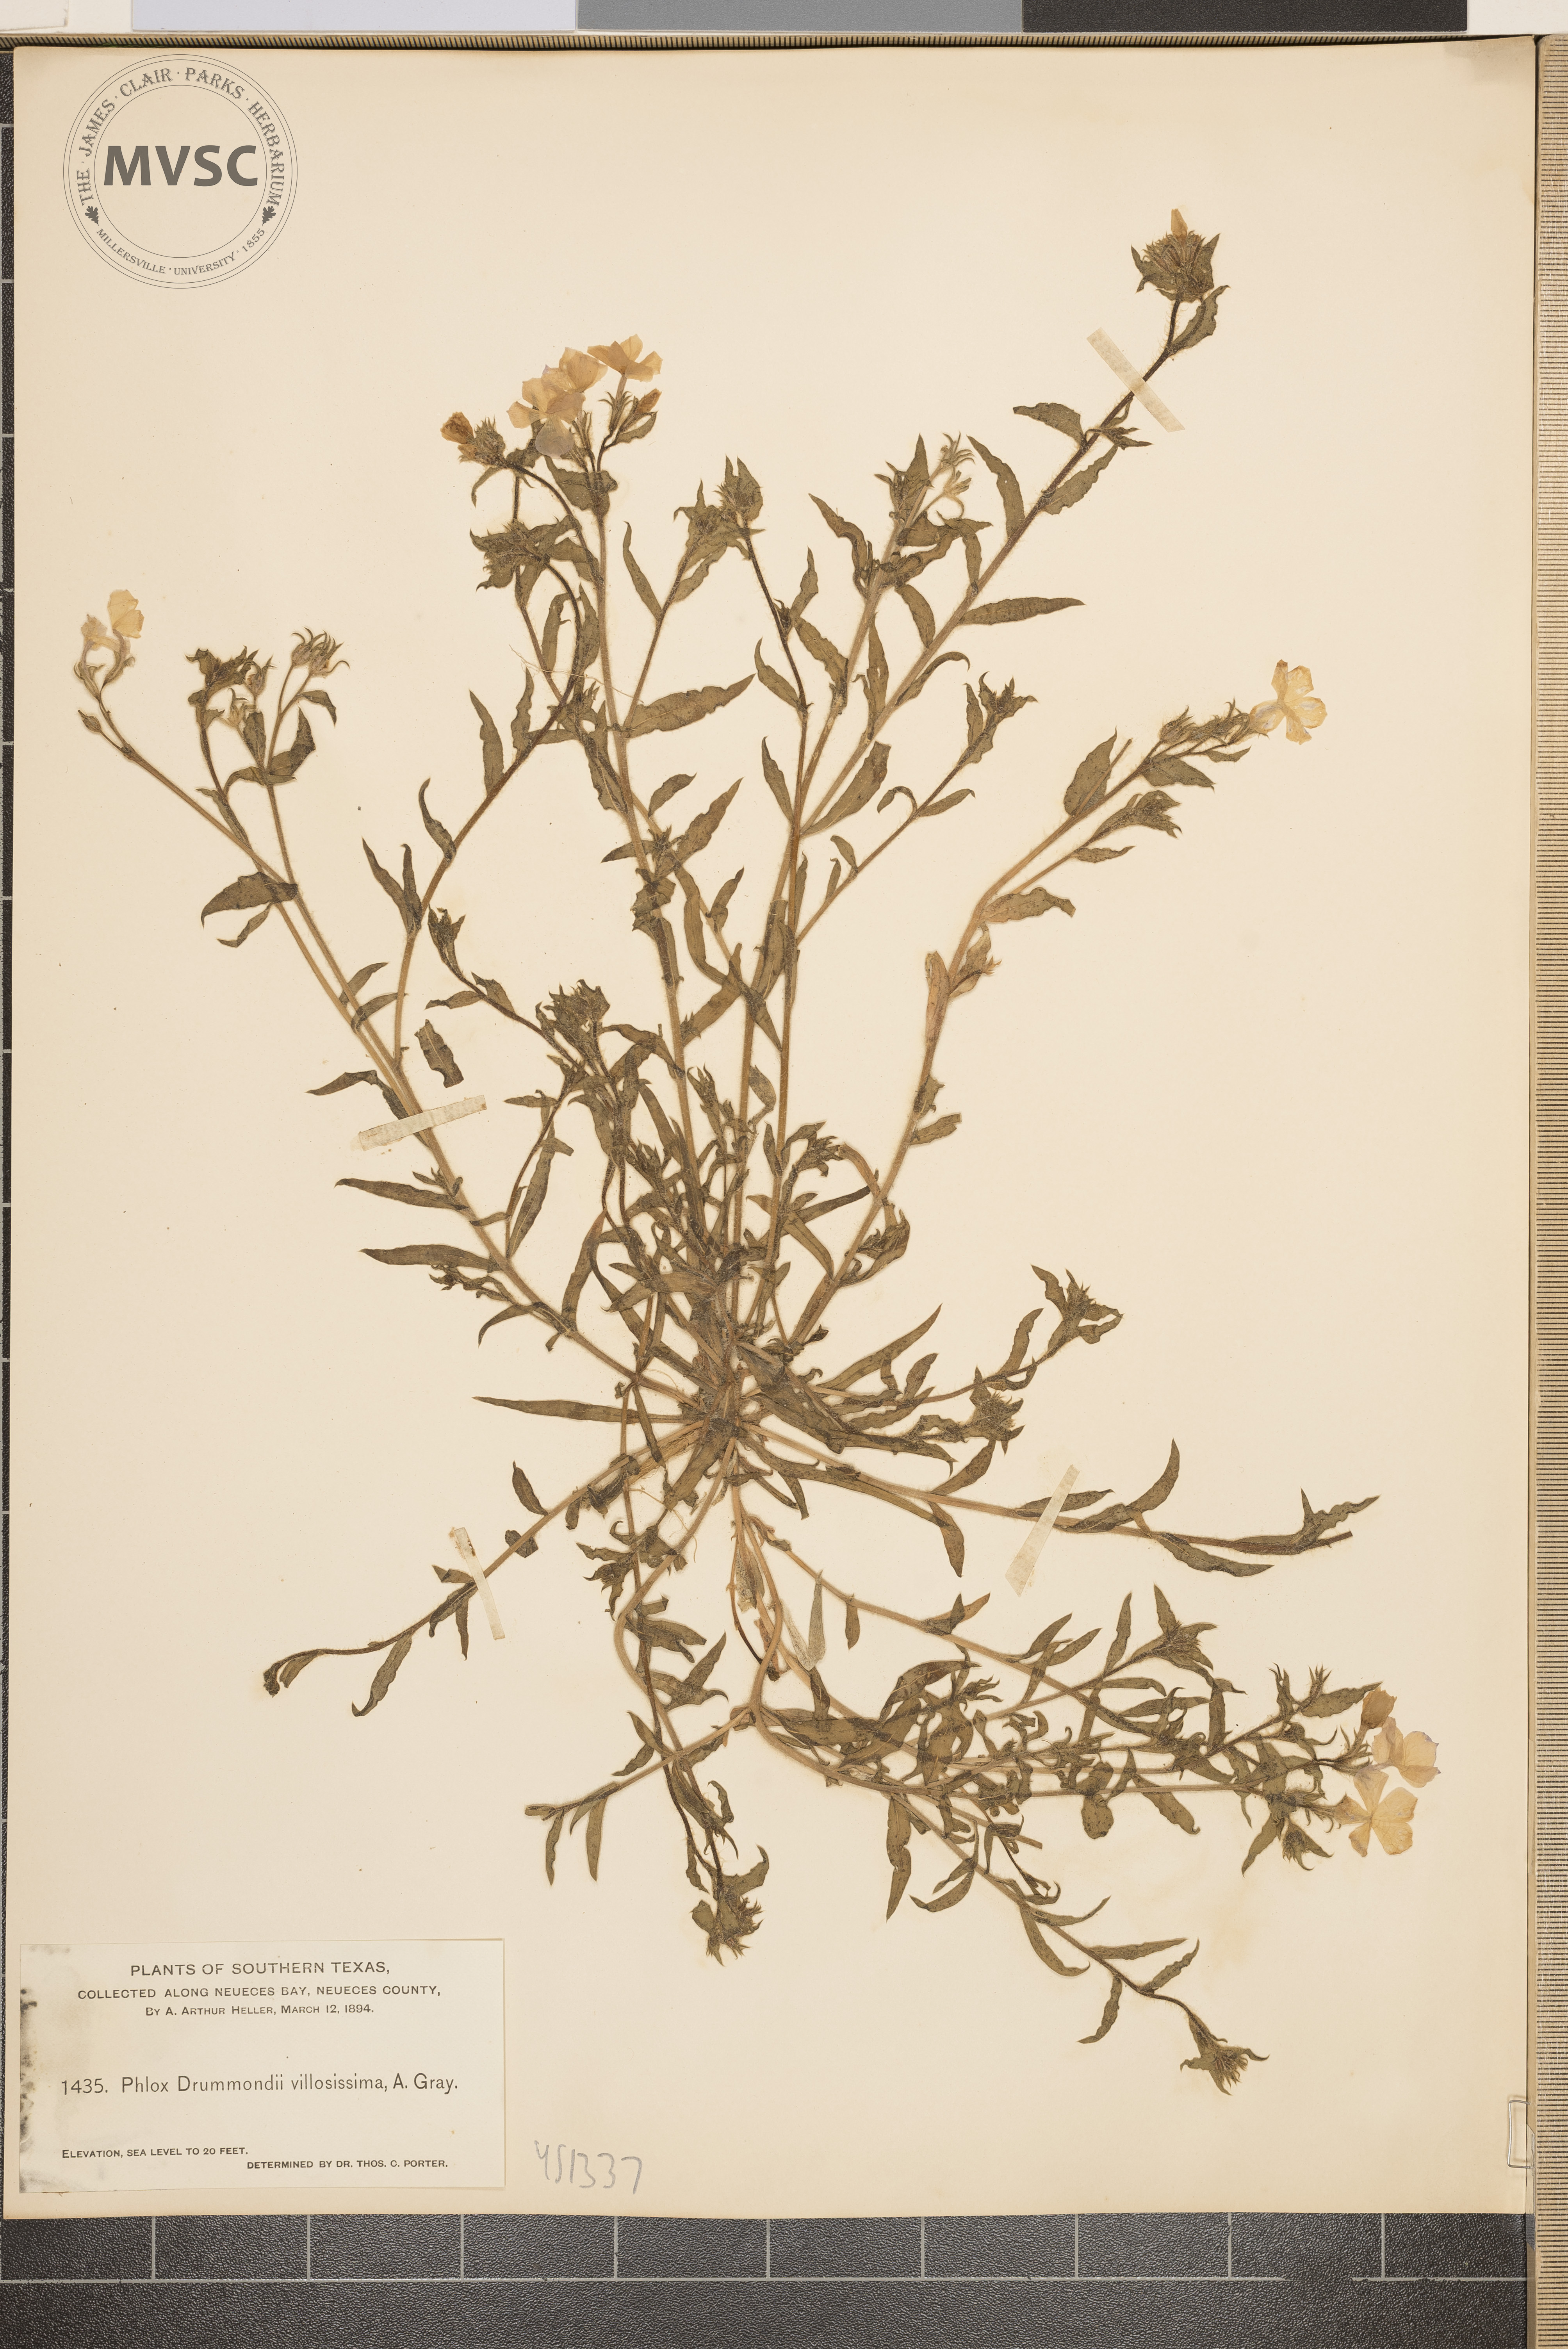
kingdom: Plantae
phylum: Tracheophyta
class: Magnoliopsida
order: Ericales
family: Polemoniaceae
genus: Phlox
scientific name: Phlox drummondii
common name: Drummond's phlox
